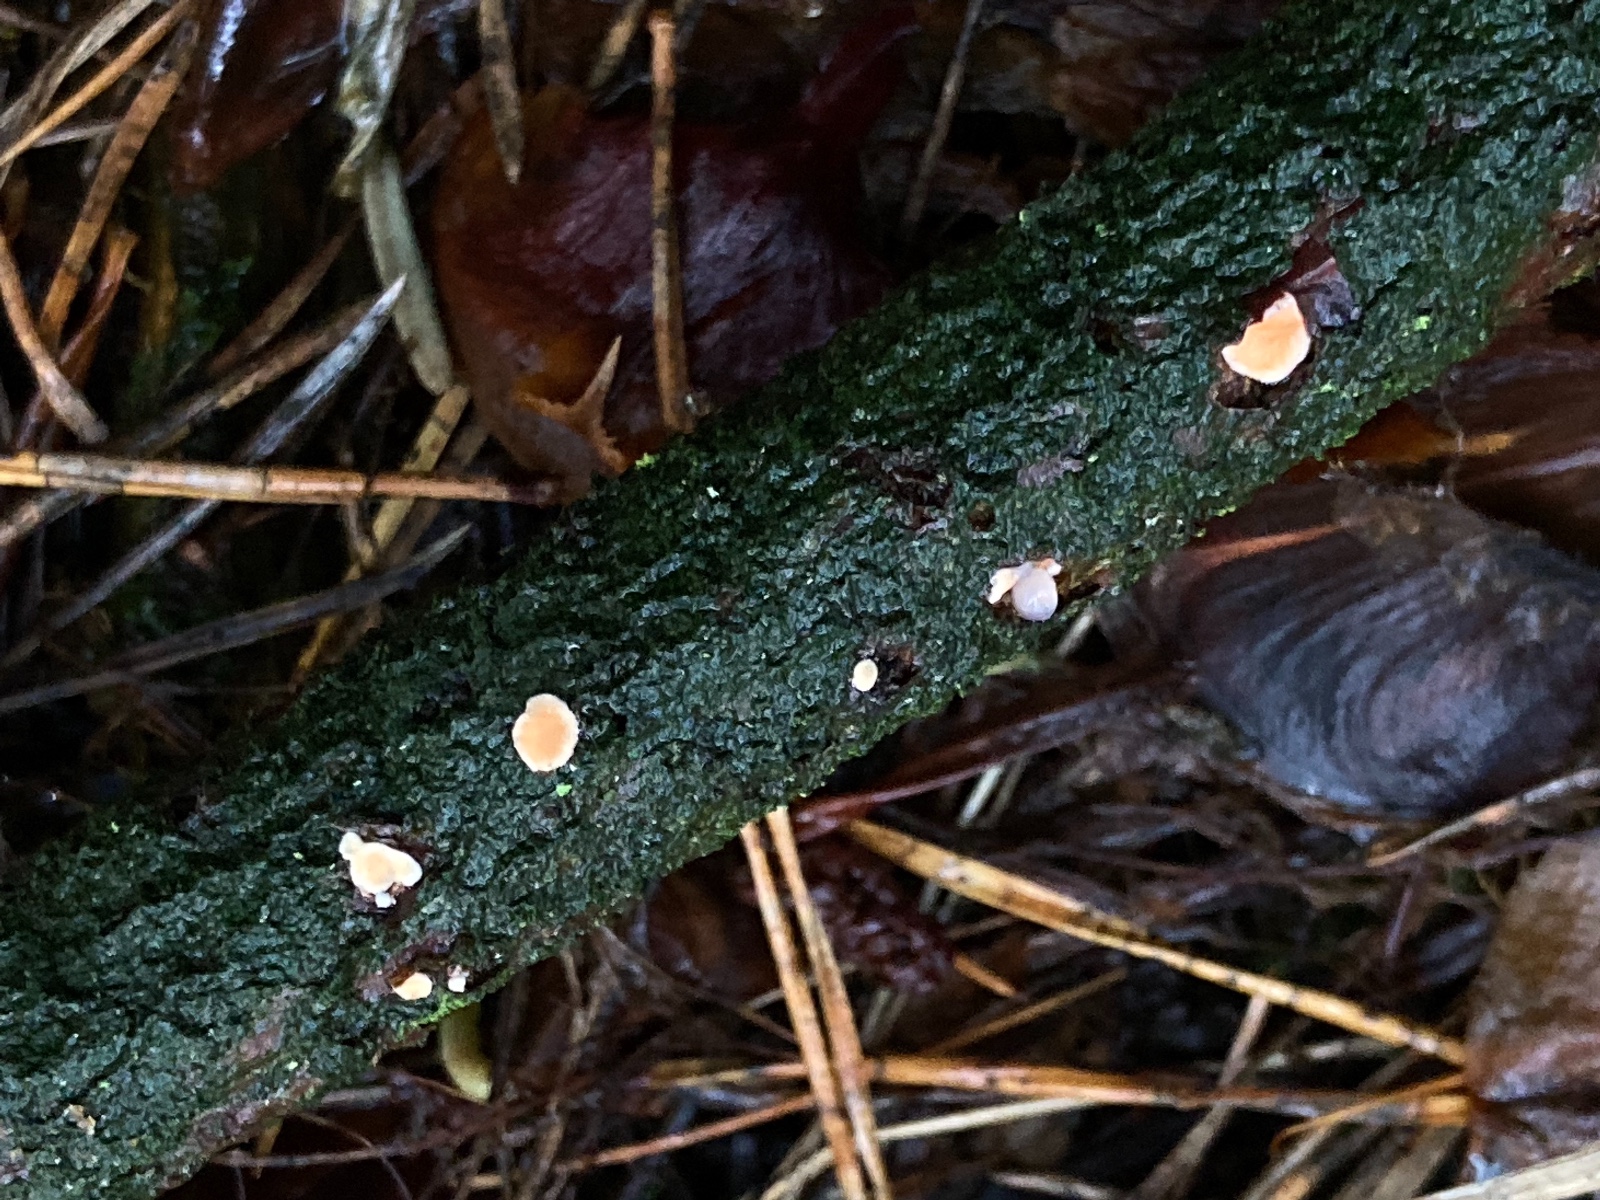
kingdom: Fungi
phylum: Basidiomycota
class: Agaricomycetes
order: Russulales
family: Stereaceae
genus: Aleurodiscus
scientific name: Aleurodiscus amorphus
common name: orange skiveskorpe
